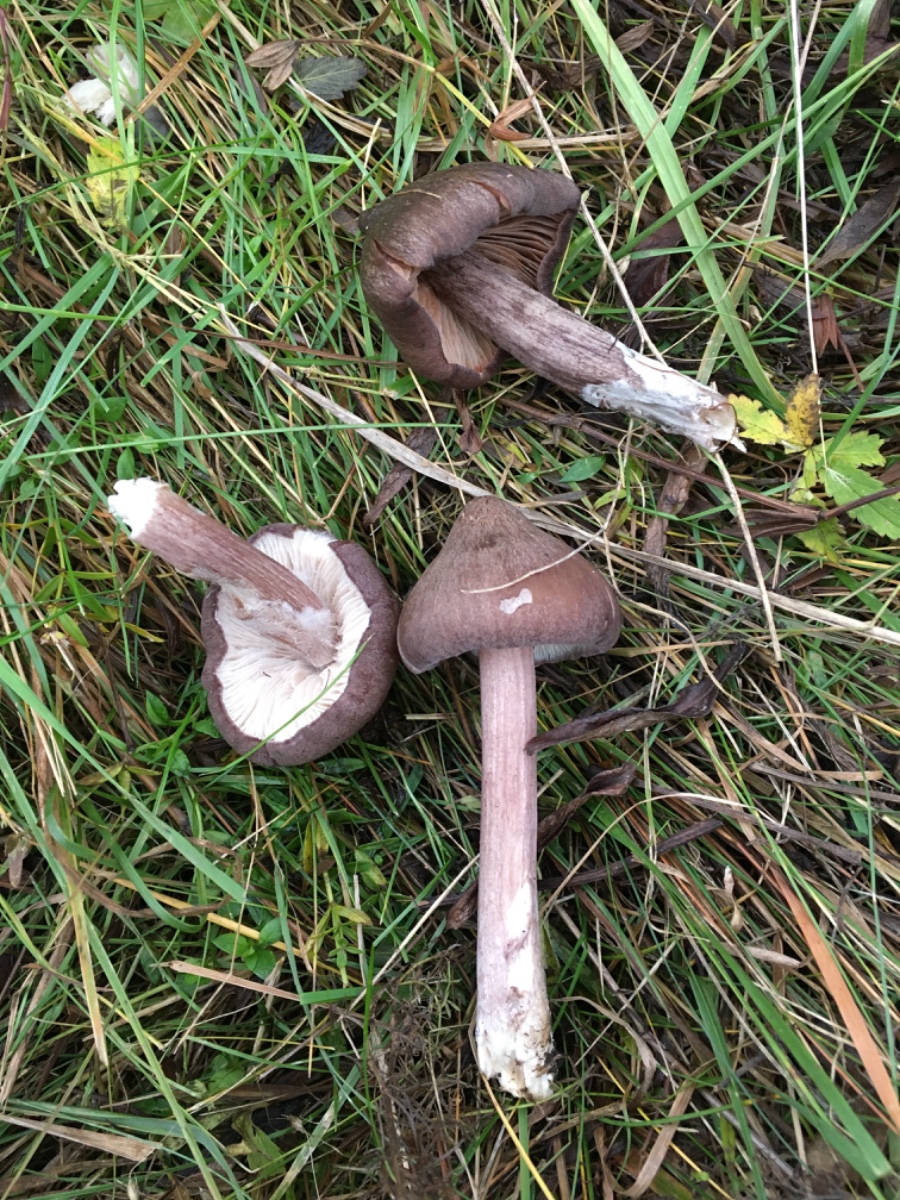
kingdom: Fungi
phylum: Basidiomycota
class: Agaricomycetes
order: Agaricales
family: Entolomataceae
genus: Entoloma
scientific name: Entoloma porphyrophaeum
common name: porfyrbrun rødblad
